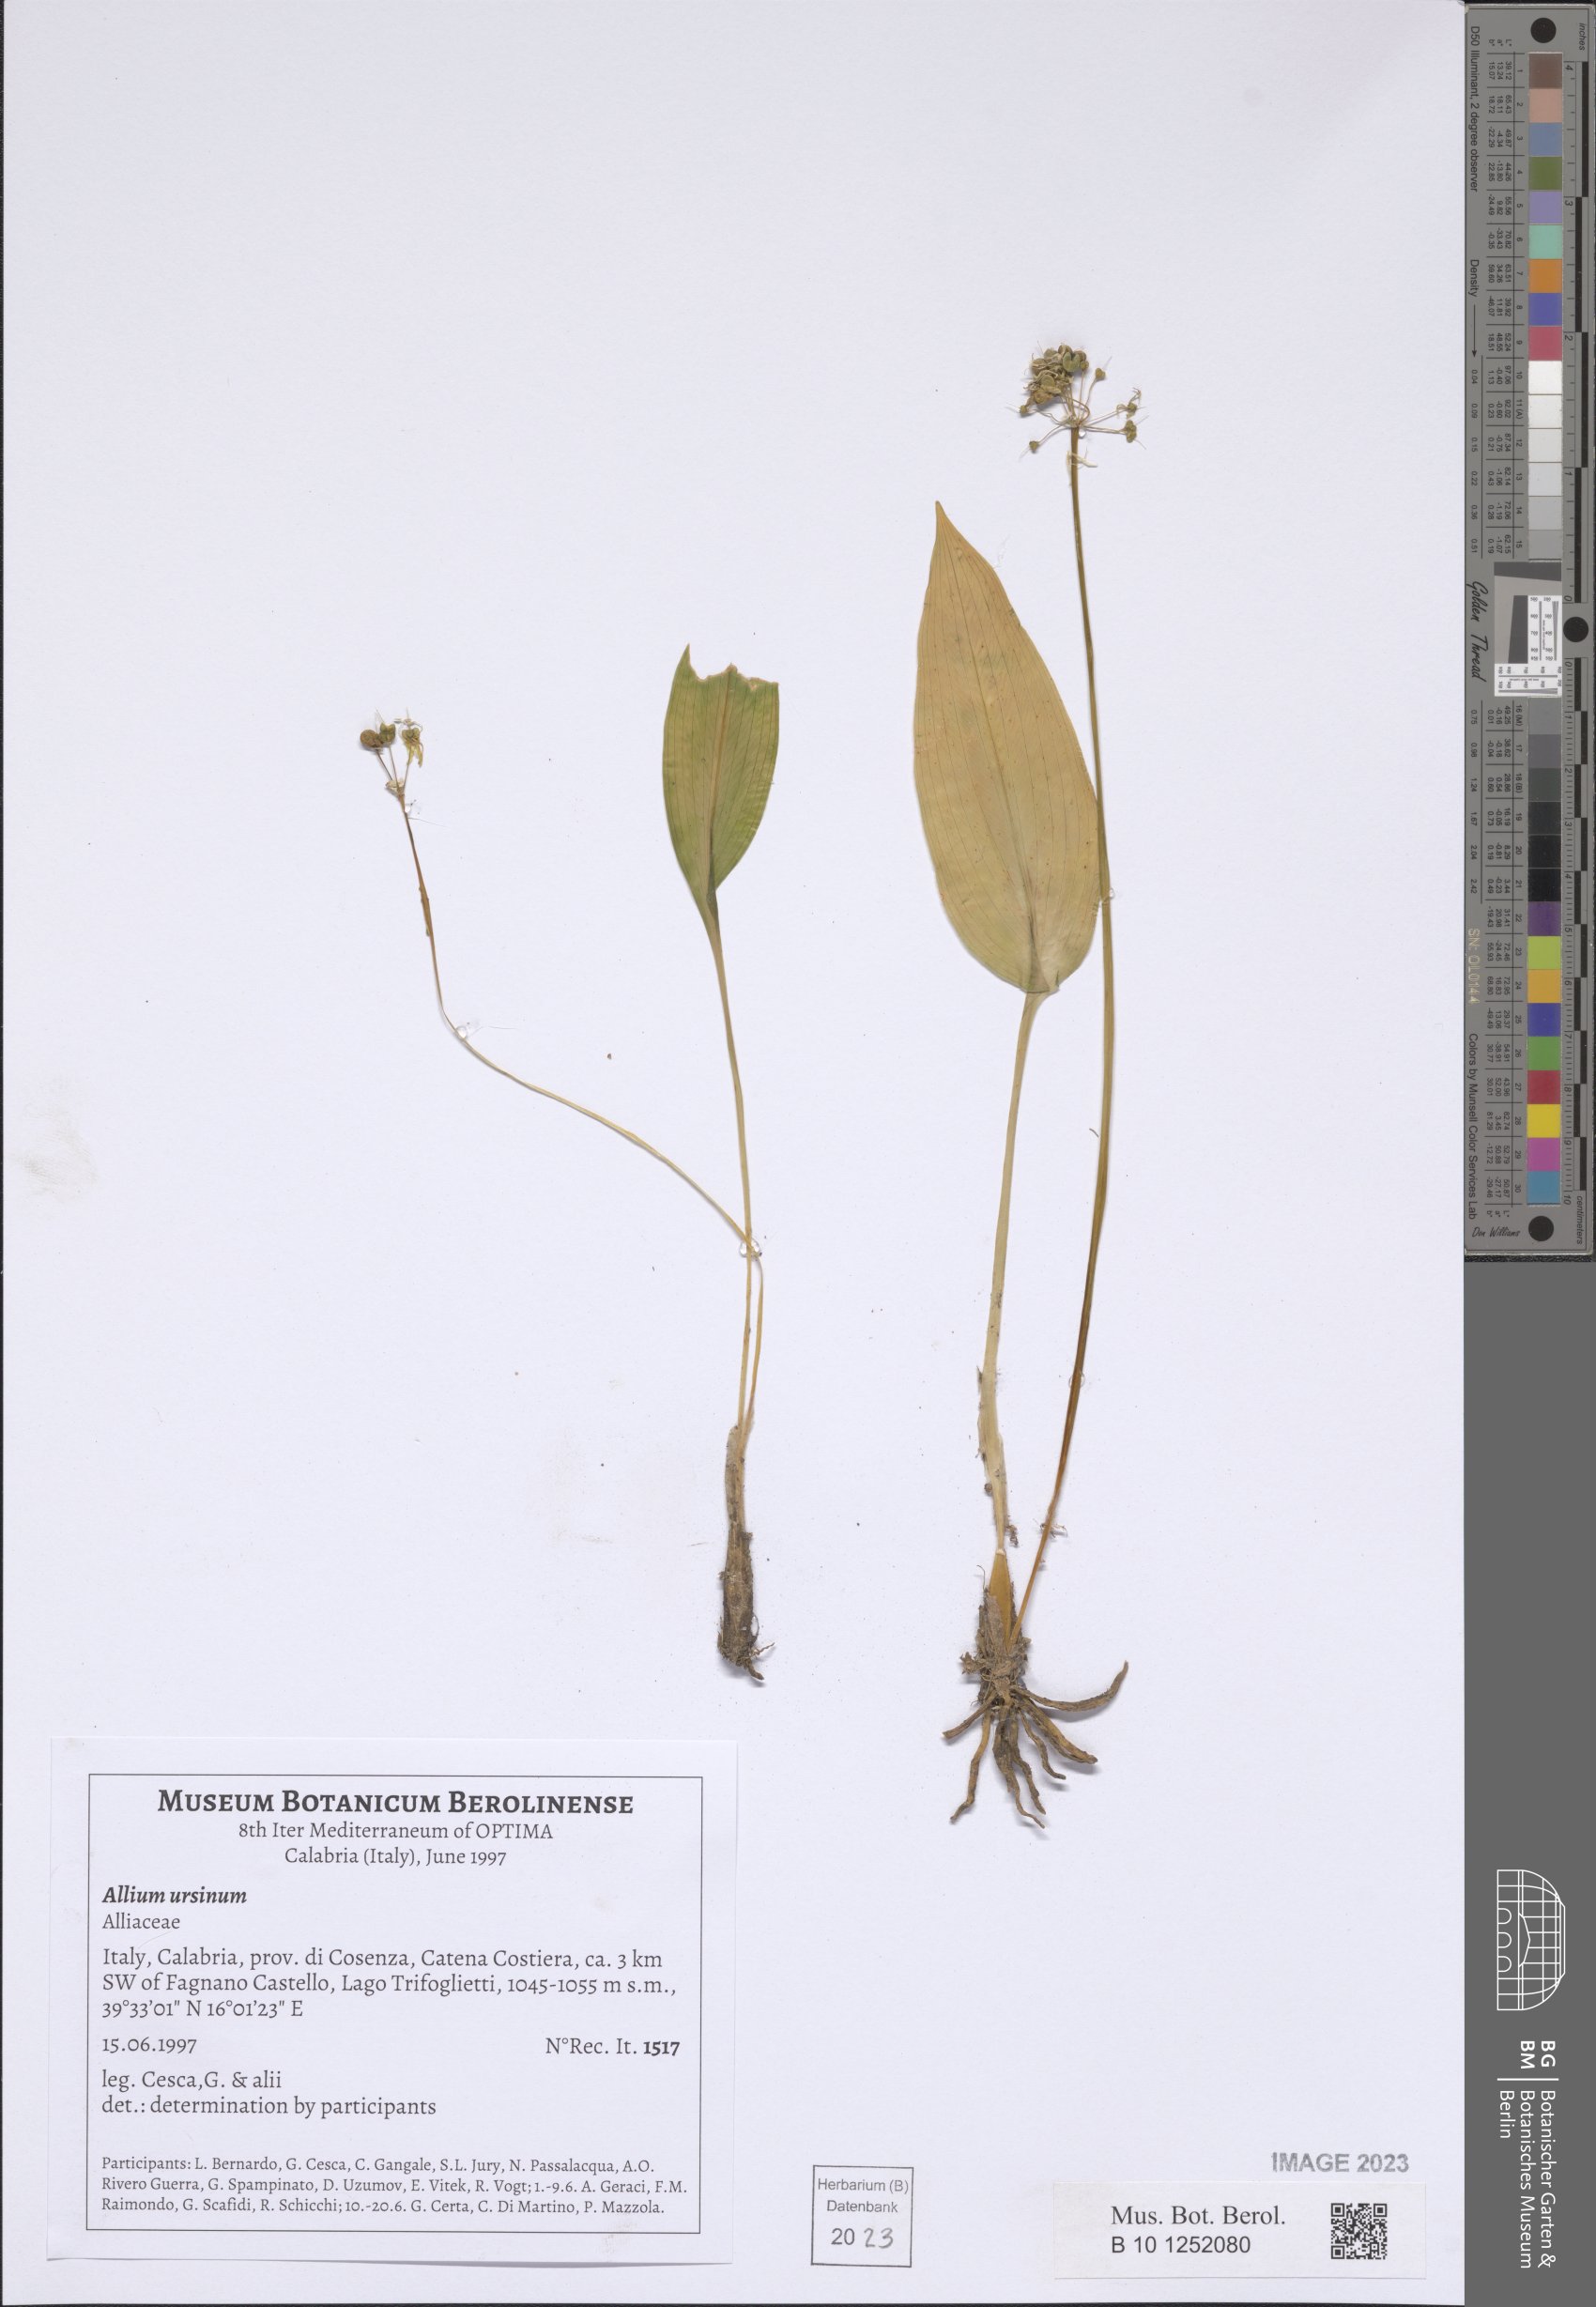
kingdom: Plantae
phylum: Tracheophyta
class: Liliopsida
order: Asparagales
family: Amaryllidaceae
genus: Allium
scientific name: Allium ursinum
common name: Ramsons
